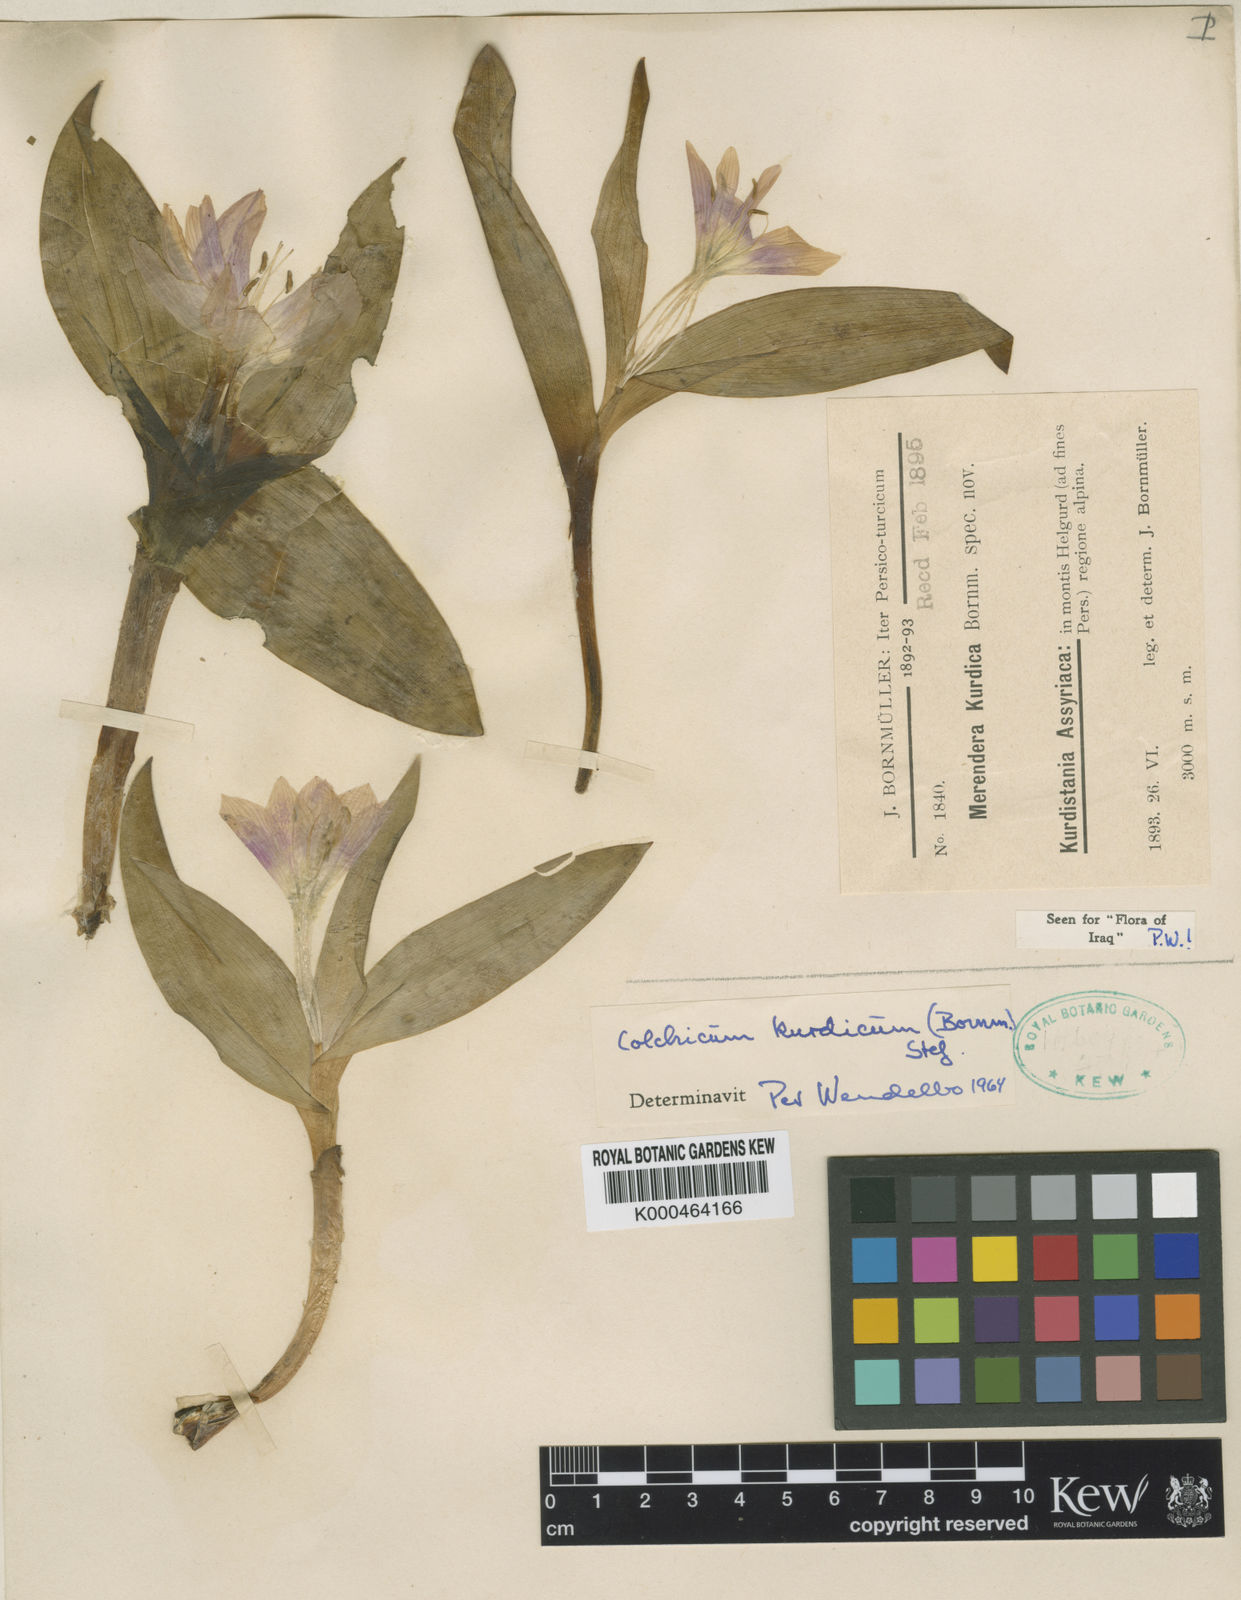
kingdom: Plantae
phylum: Tracheophyta
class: Liliopsida
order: Liliales
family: Colchicaceae
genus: Colchicum
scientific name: Colchicum kurdicum
